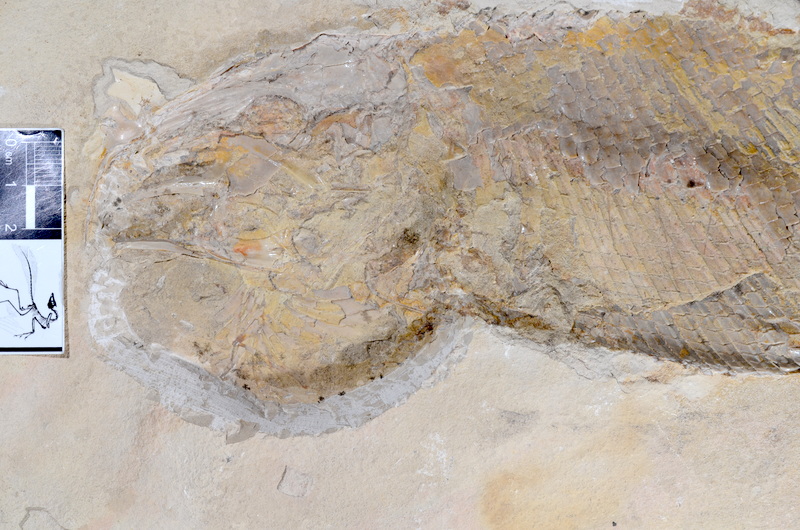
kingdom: Animalia
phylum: Chordata
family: Callipurbeckiidae
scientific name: Callipurbeckiidae
